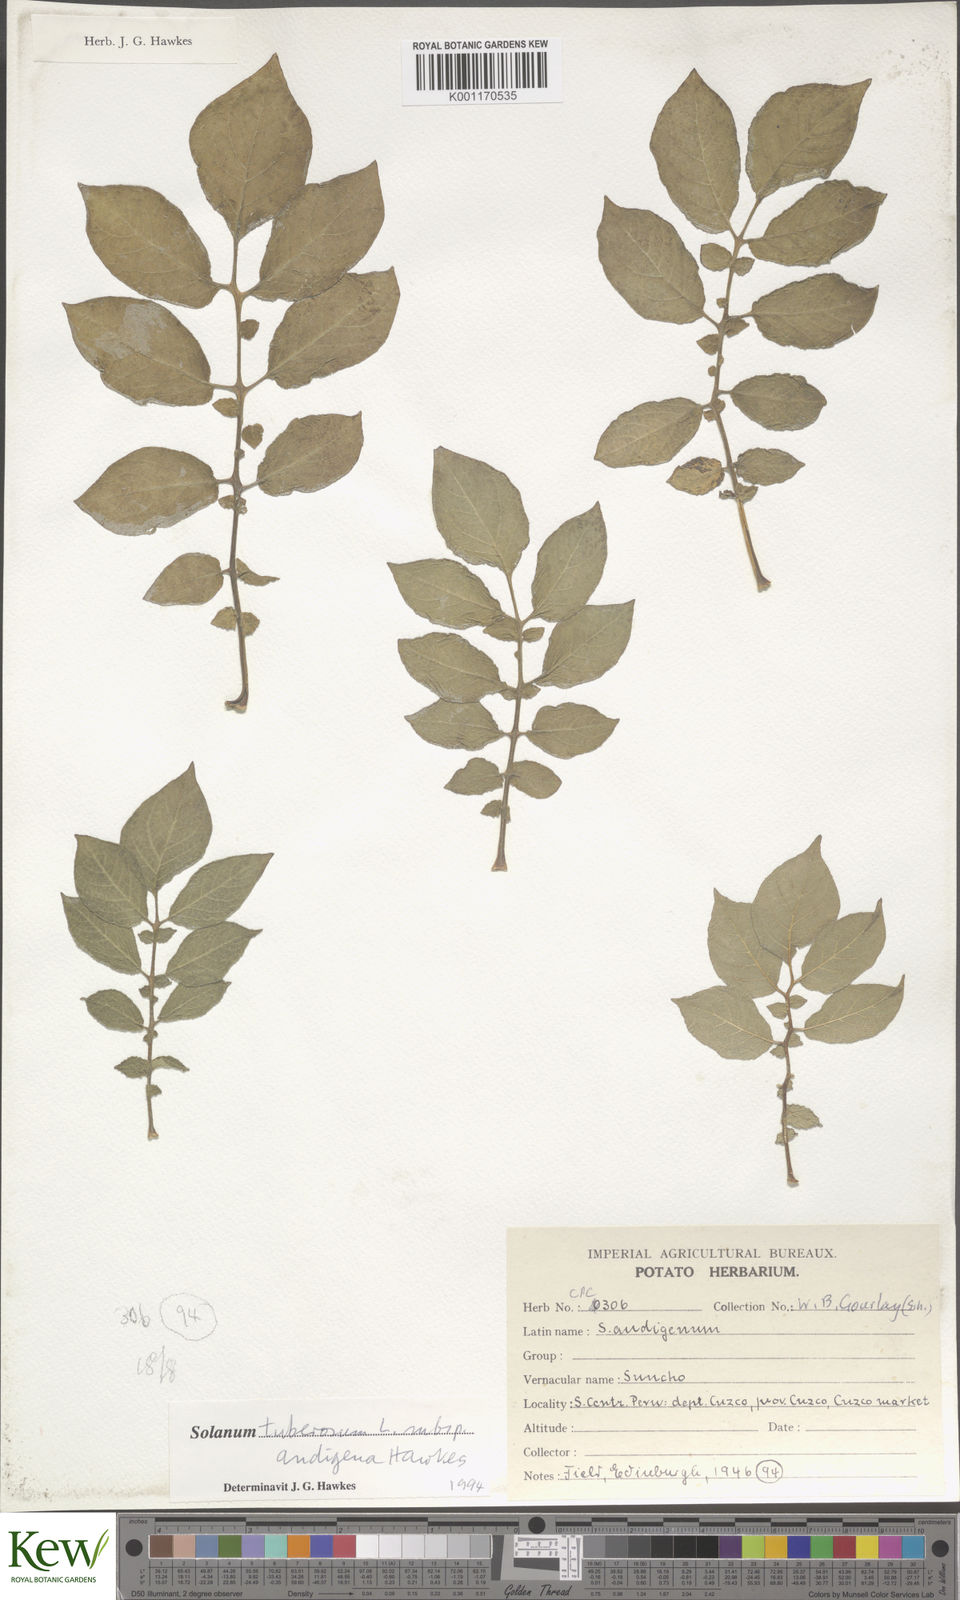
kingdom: Plantae
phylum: Tracheophyta
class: Magnoliopsida
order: Solanales
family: Solanaceae
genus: Solanum
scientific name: Solanum tuberosum
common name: Potato
